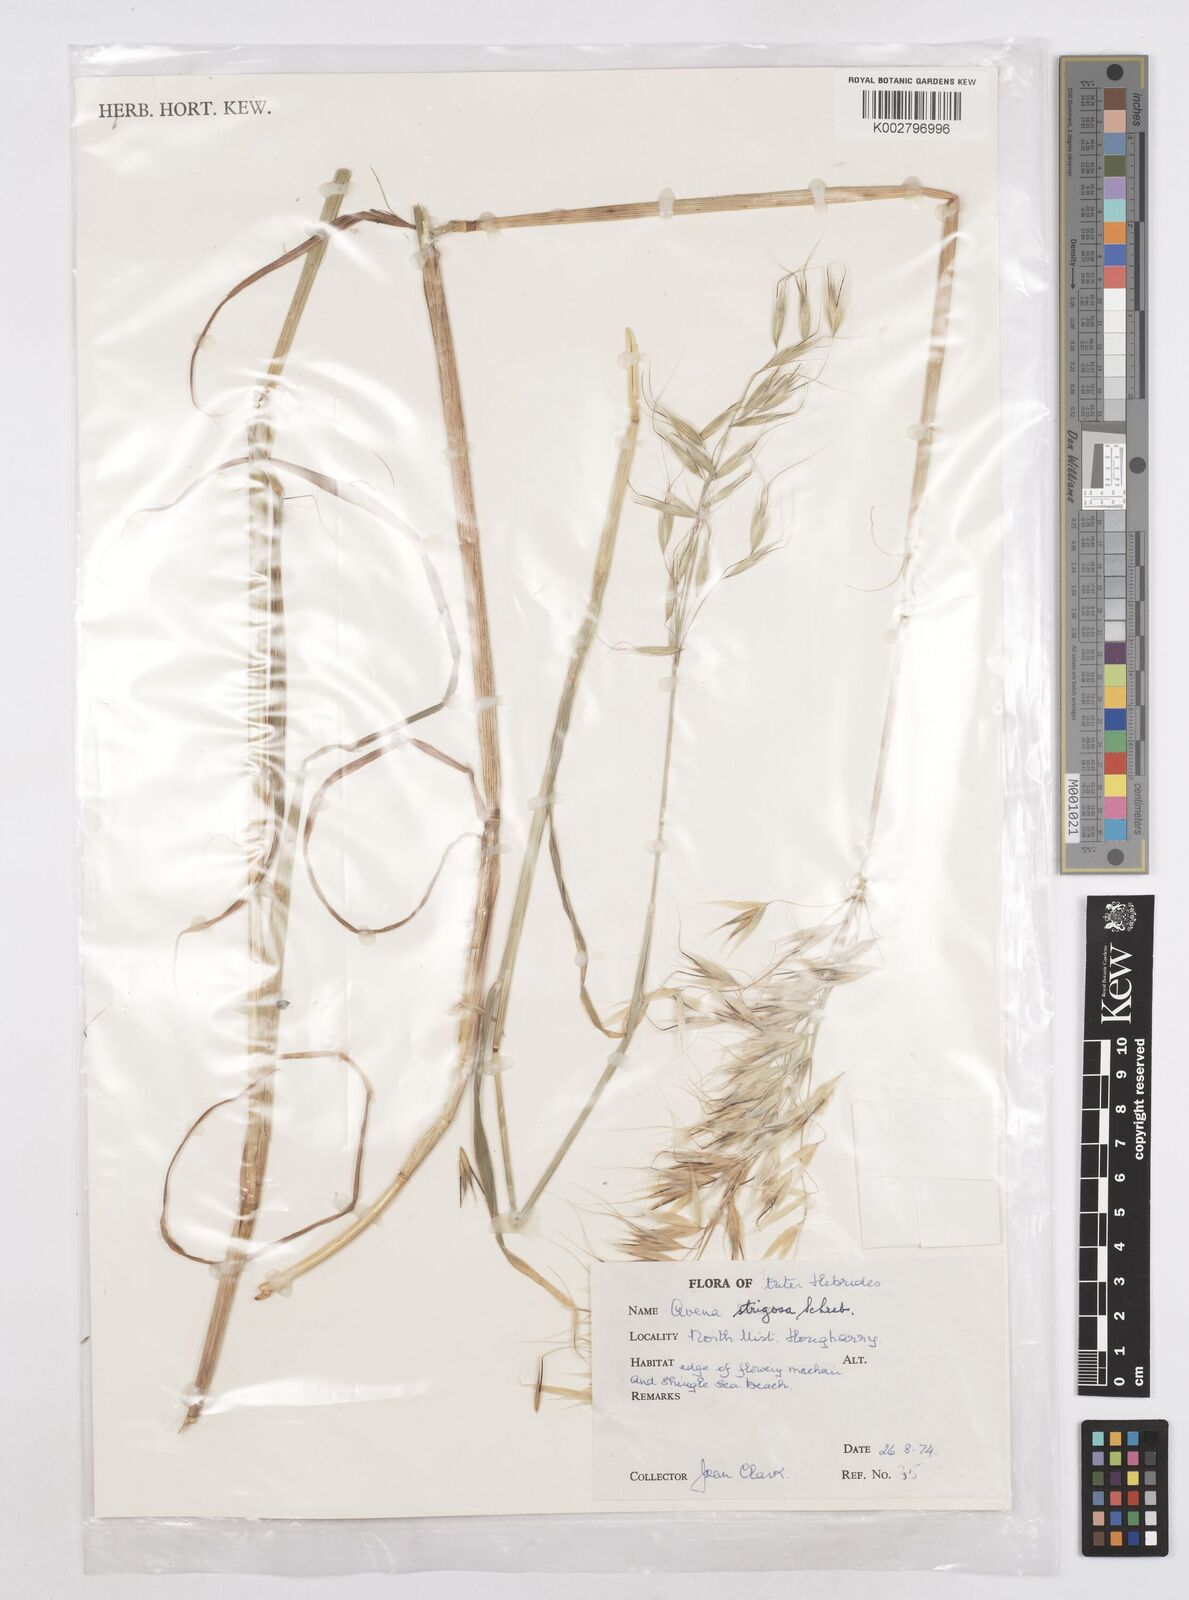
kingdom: Plantae
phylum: Tracheophyta
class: Liliopsida
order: Poales
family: Poaceae
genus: Avena
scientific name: Avena strigosa
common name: Bristle oat
